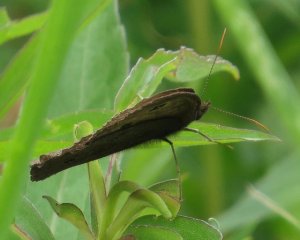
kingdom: Animalia
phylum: Arthropoda
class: Insecta
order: Lepidoptera
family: Nymphalidae
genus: Cercyonis
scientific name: Cercyonis pegala
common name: Common Wood-Nymph
